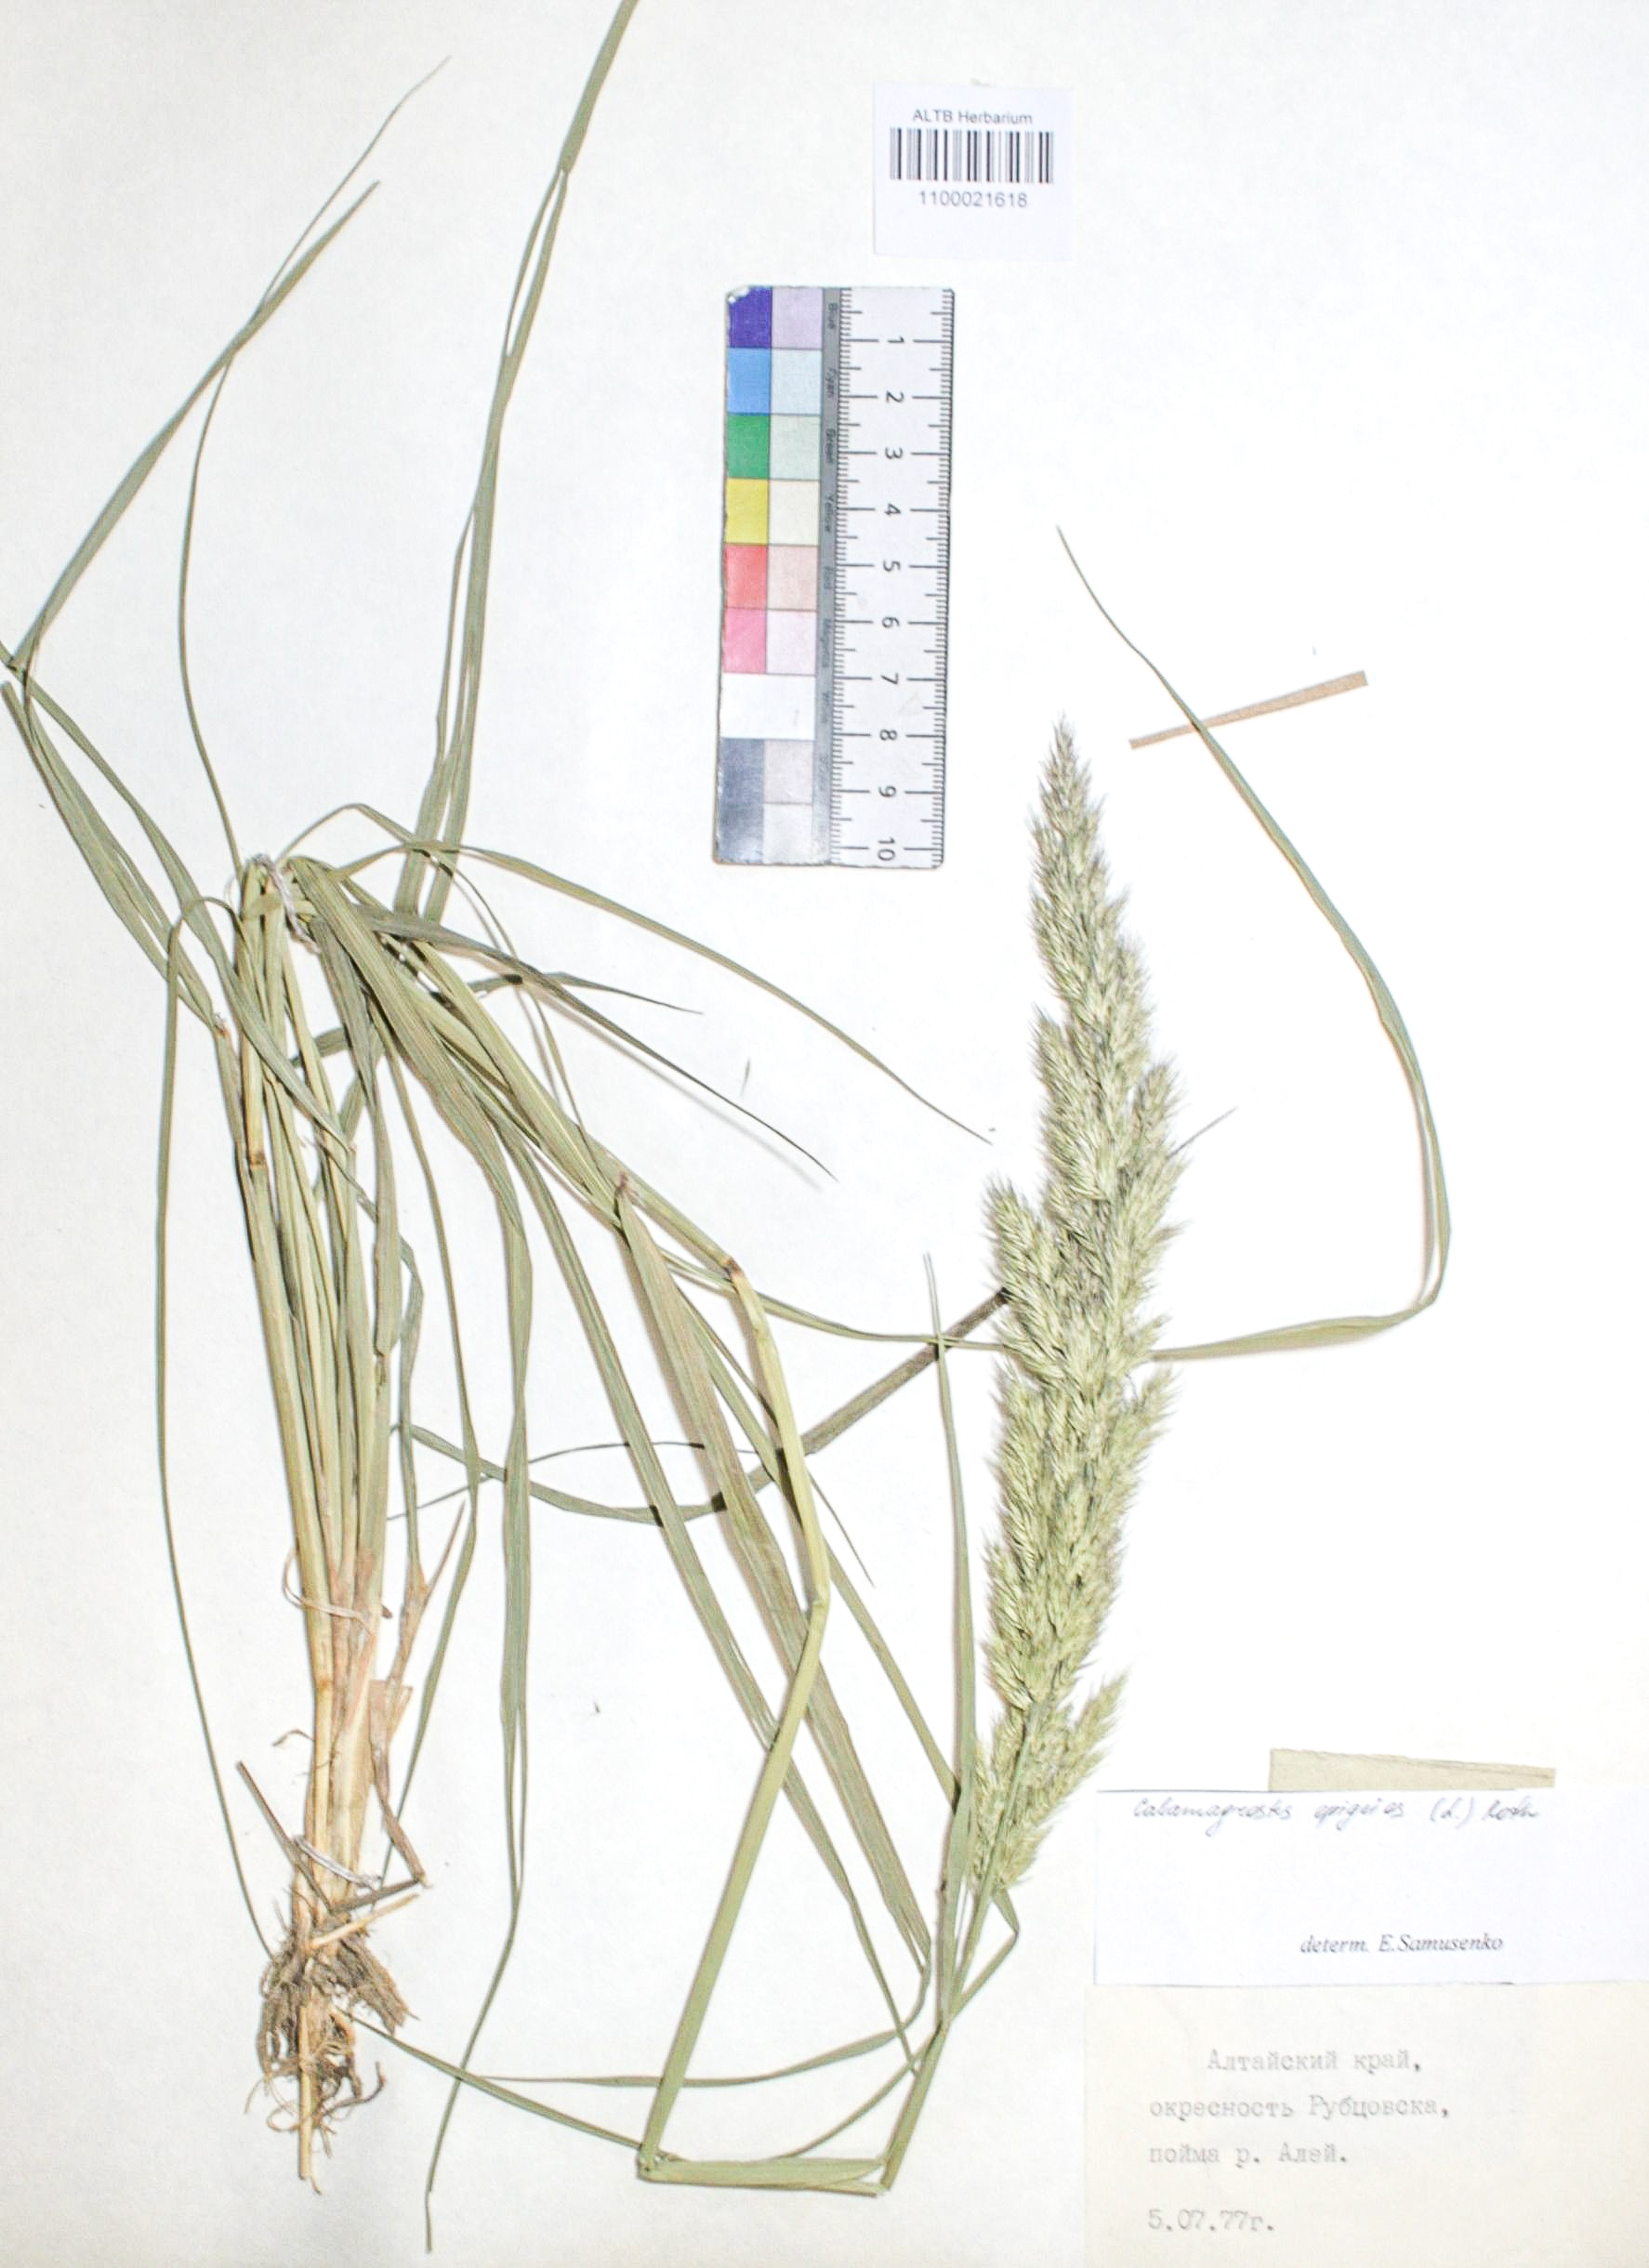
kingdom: Plantae
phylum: Tracheophyta
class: Liliopsida
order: Poales
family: Poaceae
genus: Calamagrostis
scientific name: Calamagrostis epigejos
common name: Wood small-reed
